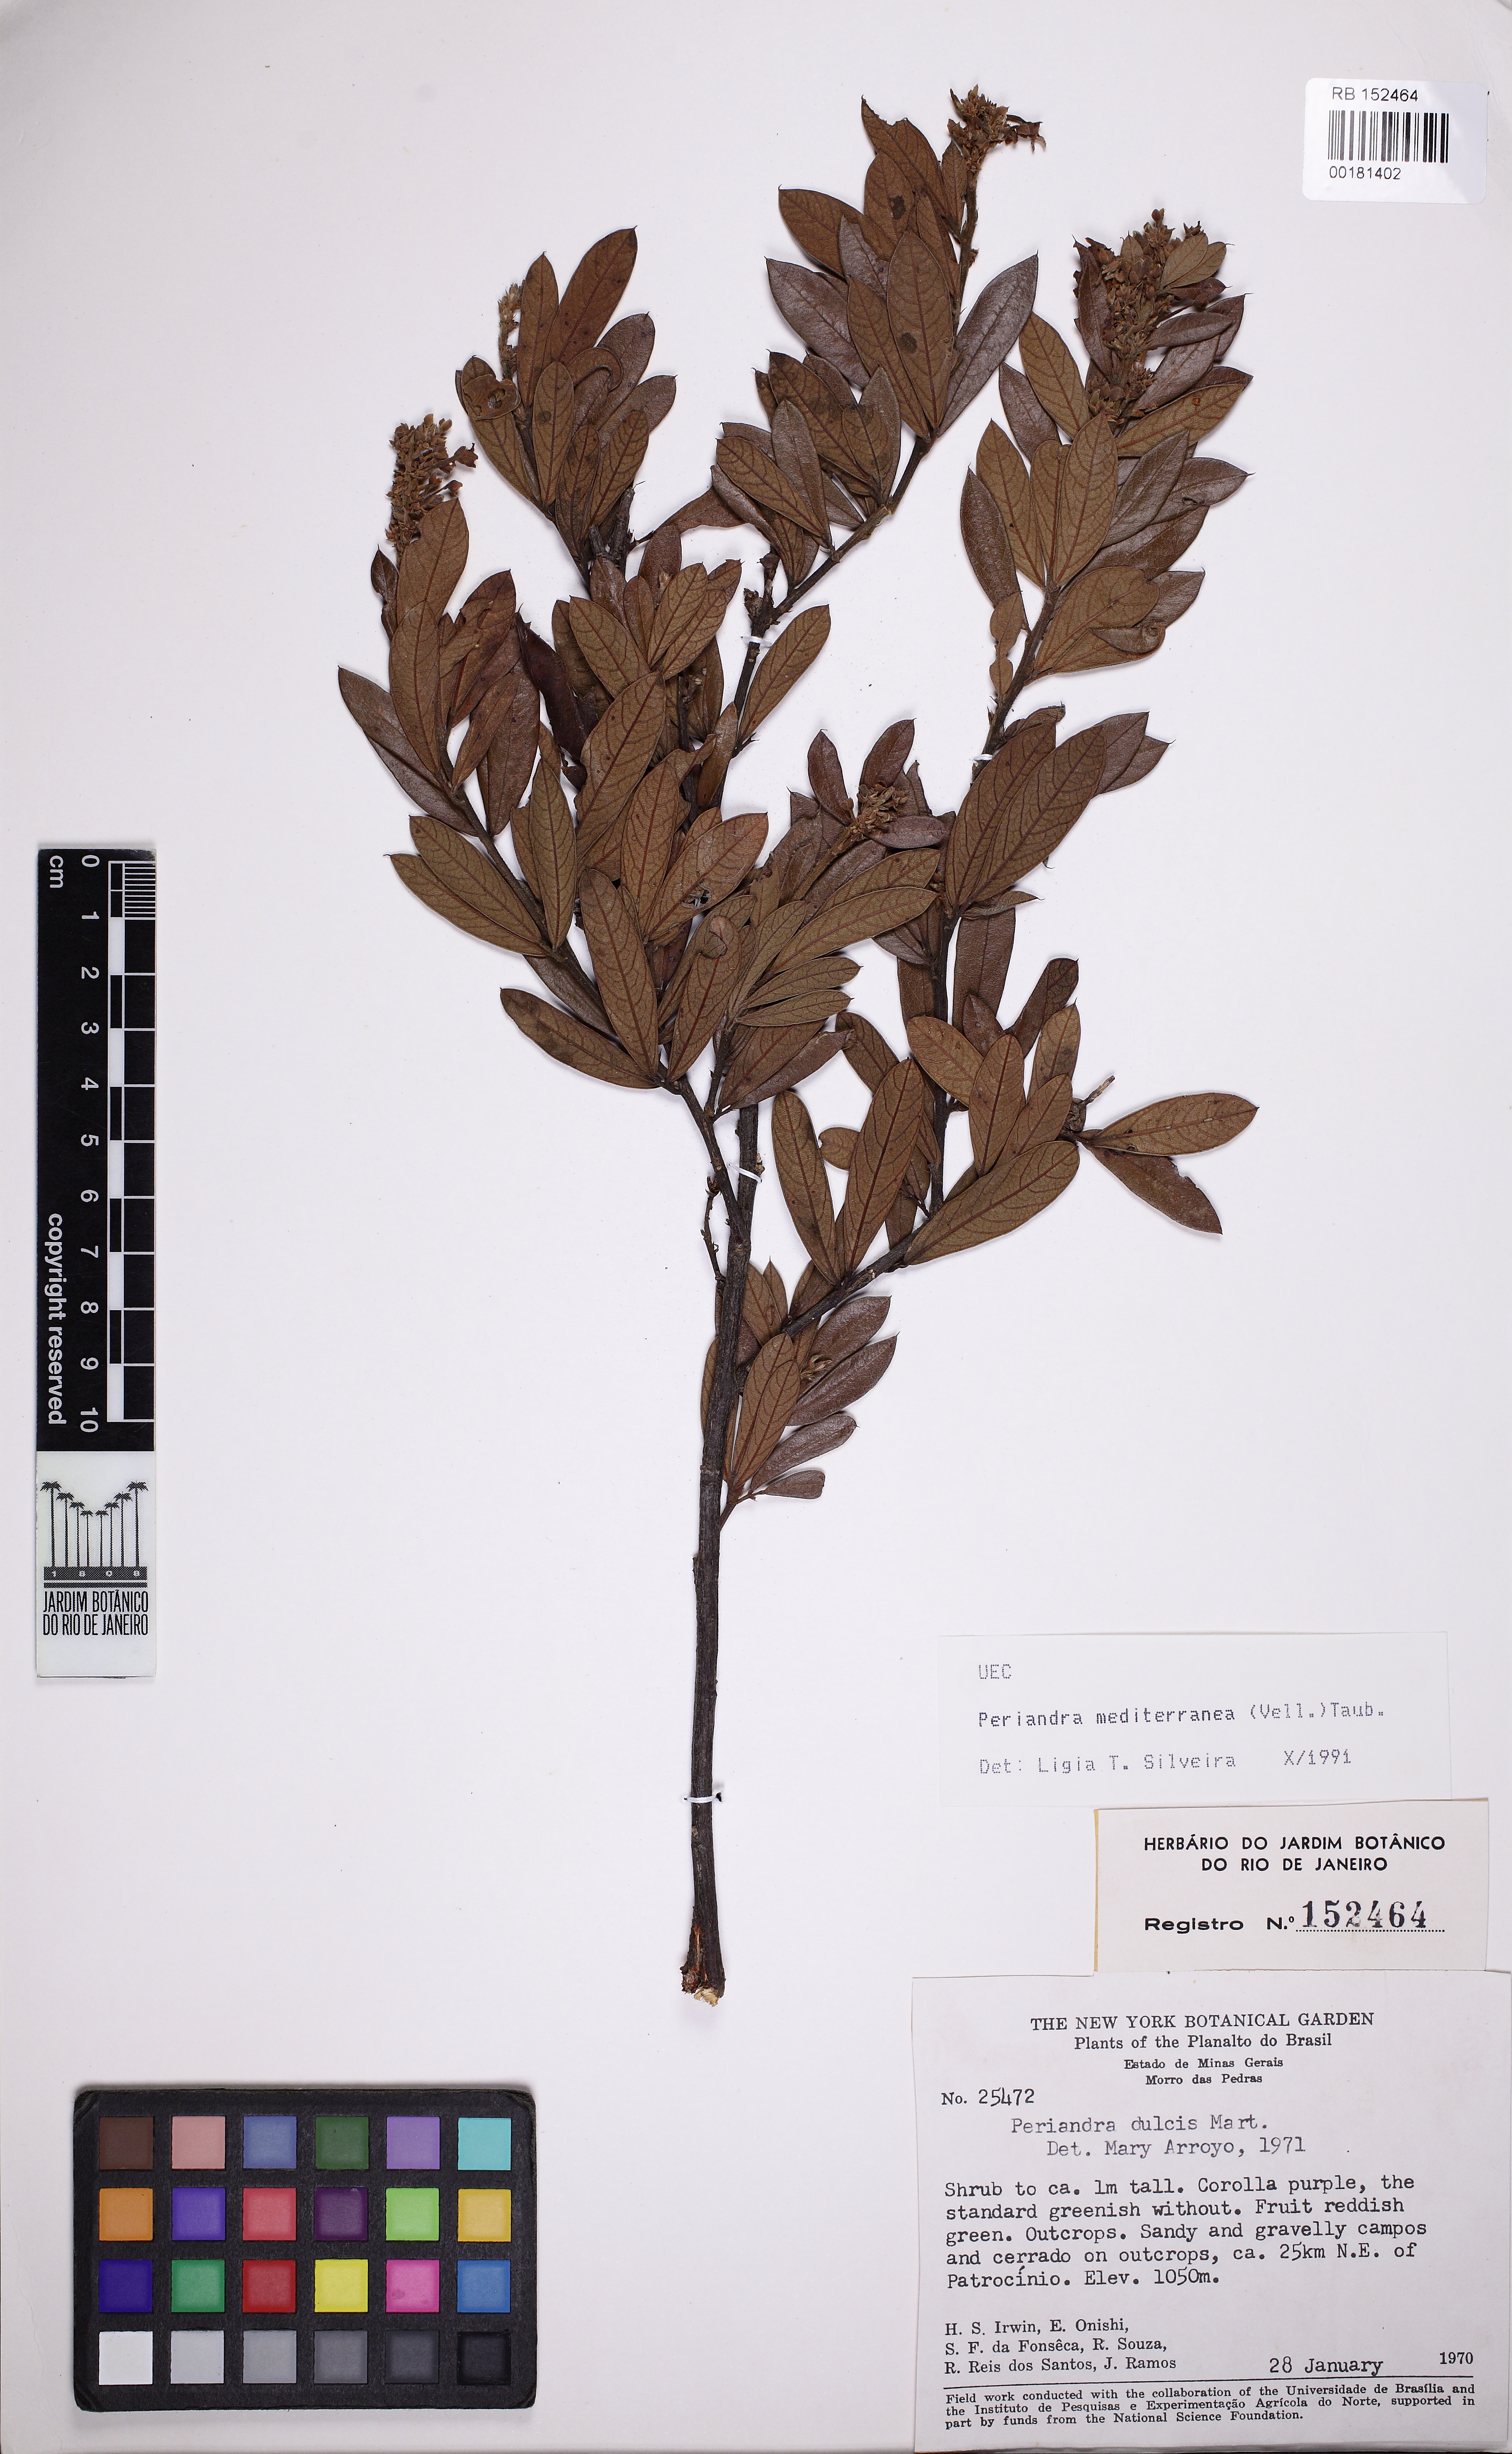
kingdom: Plantae
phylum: Tracheophyta
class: Magnoliopsida
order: Fabales
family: Fabaceae
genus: Periandra
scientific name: Periandra mediterranea
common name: Brazilian licorice
